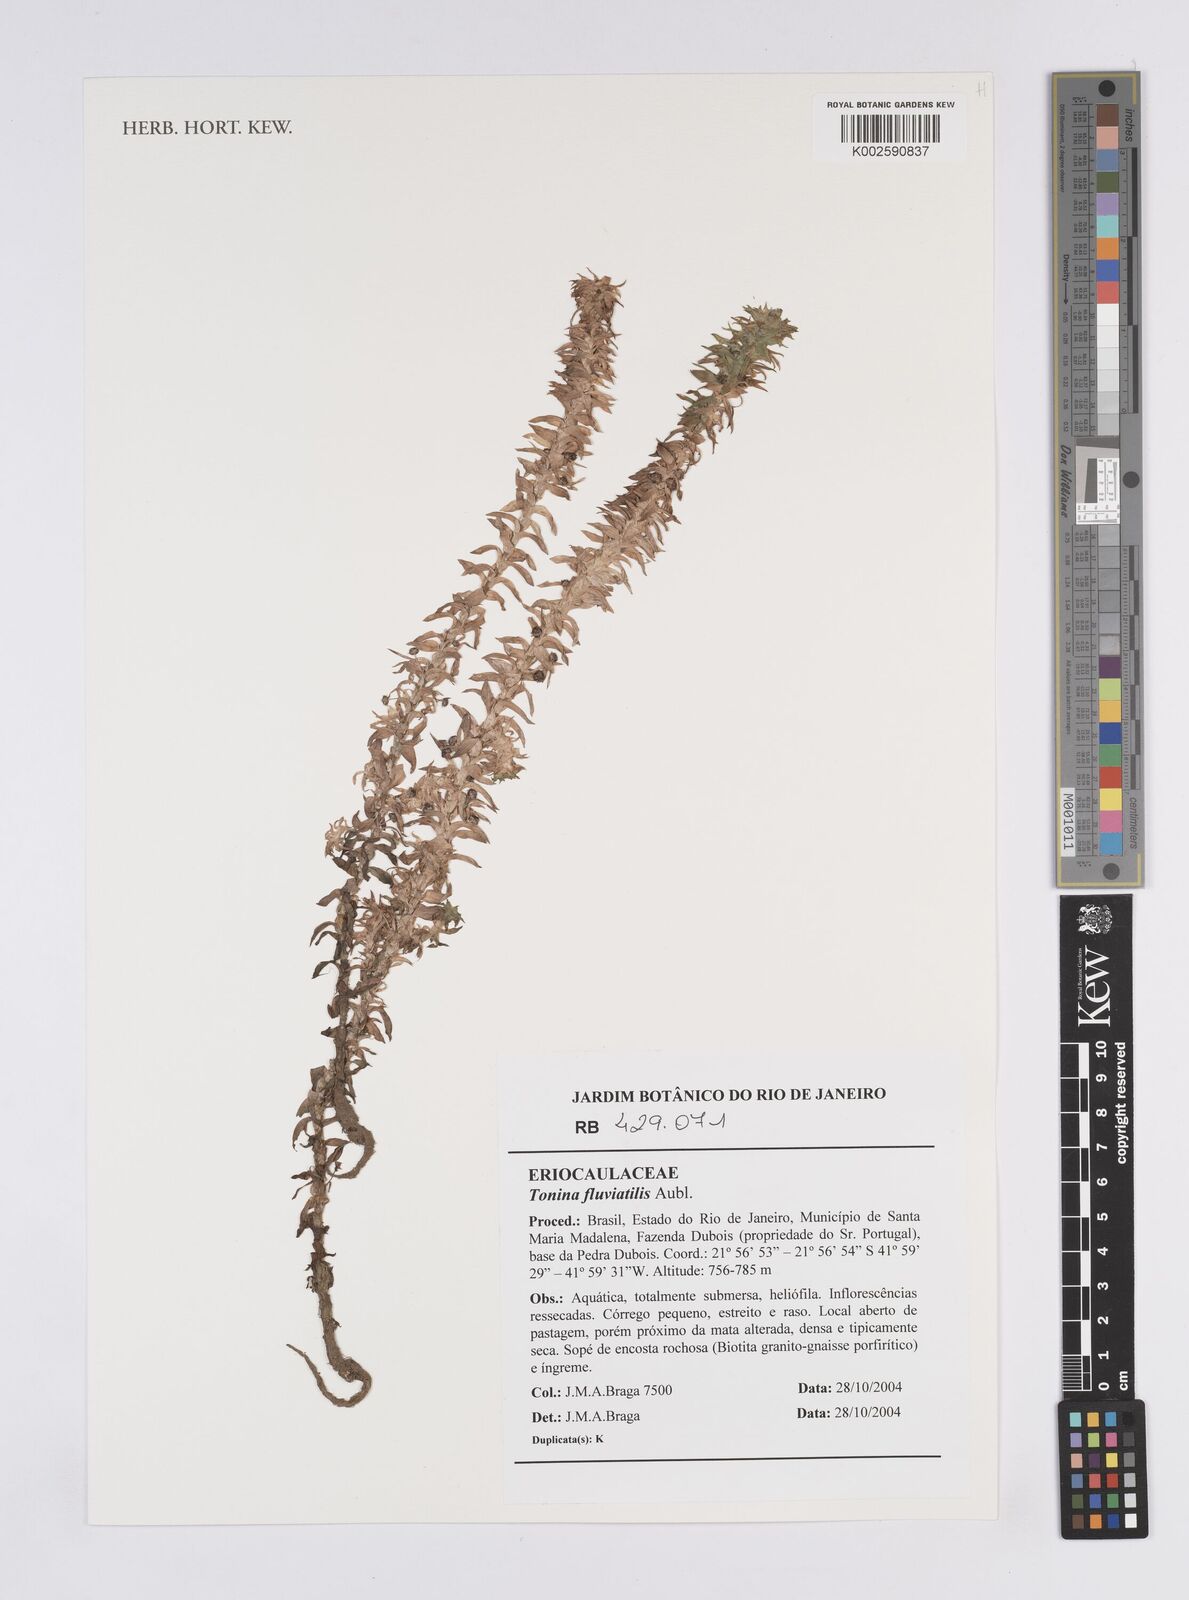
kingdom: Plantae
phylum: Tracheophyta
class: Liliopsida
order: Poales
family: Eriocaulaceae
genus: Paepalanthus
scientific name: Paepalanthus fluviatilis
